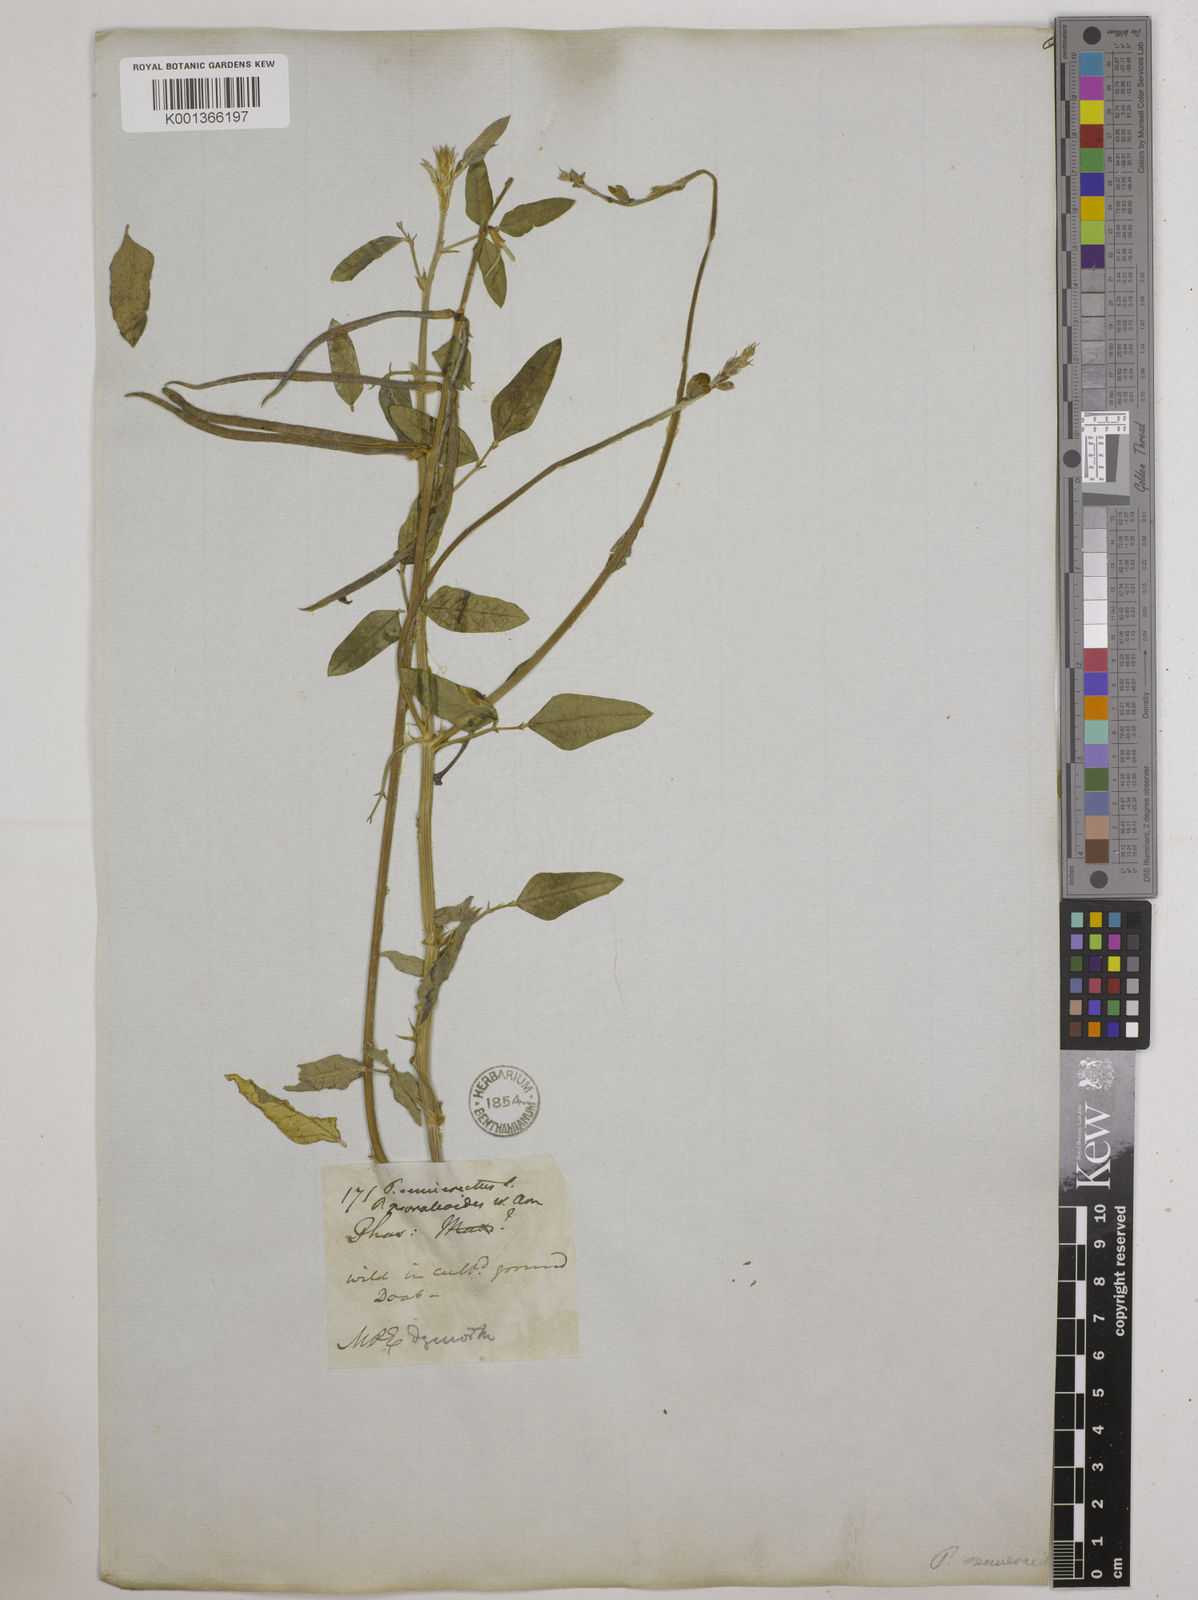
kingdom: Plantae
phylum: Tracheophyta
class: Magnoliopsida
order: Fabales
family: Fabaceae
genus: Macroptilium
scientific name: Macroptilium lathyroides
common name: Wild bushbean
